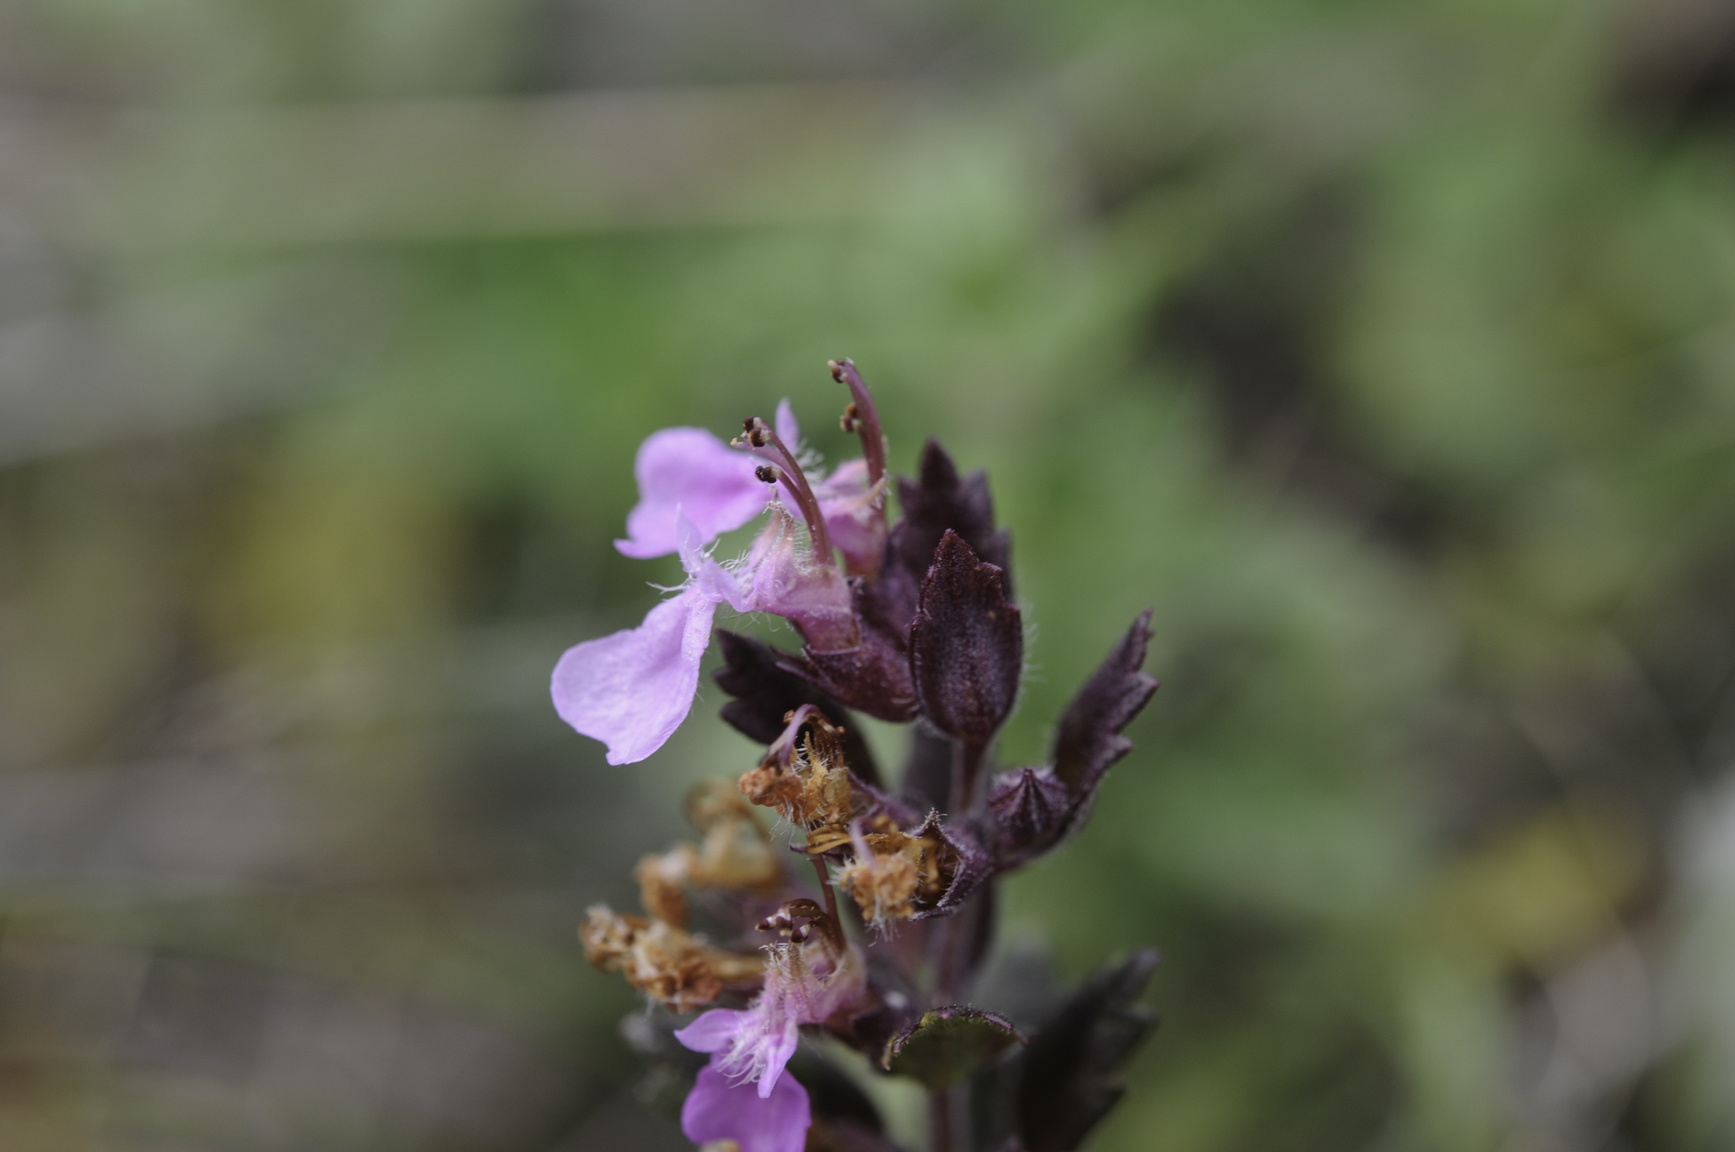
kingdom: Plantae
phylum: Tracheophyta
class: Magnoliopsida
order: Lamiales
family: Lamiaceae
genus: Teucrium
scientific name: Teucrium chamaedrys
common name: Wall germander
